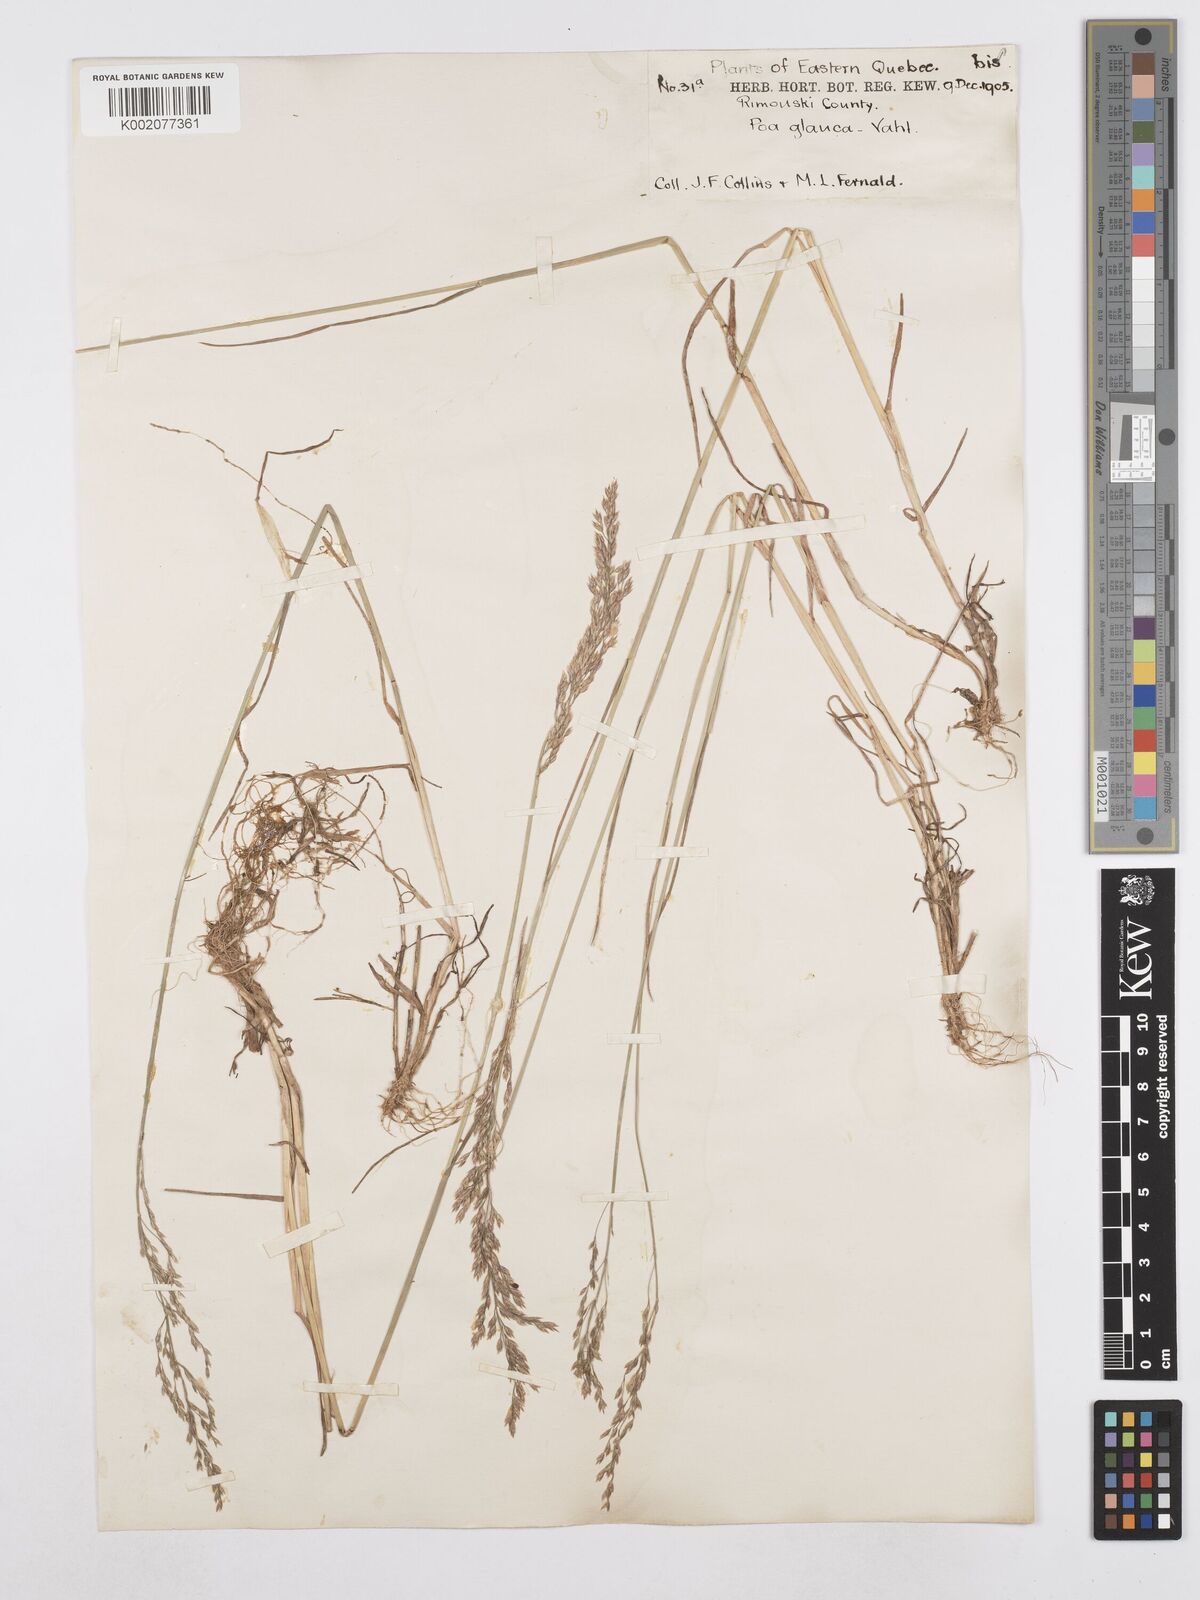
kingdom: Plantae
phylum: Tracheophyta
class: Liliopsida
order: Poales
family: Poaceae
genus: Poa
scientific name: Poa glauca
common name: Glaucous bluegrass
